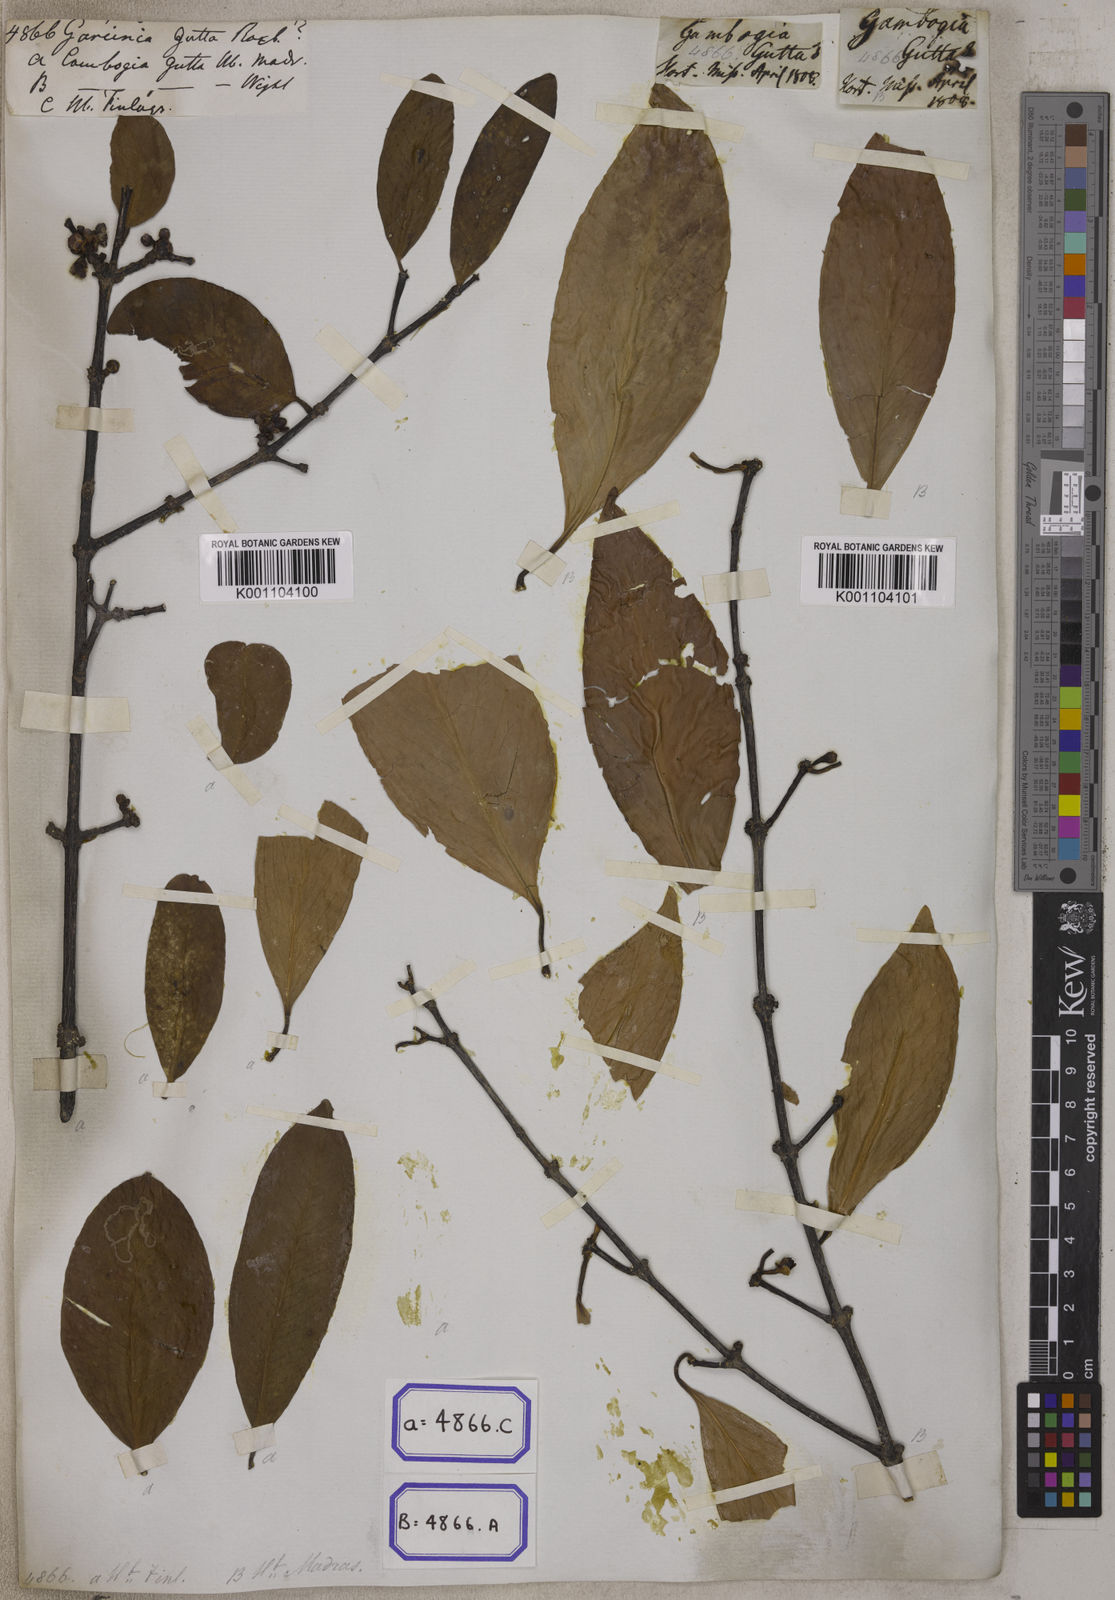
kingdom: Plantae
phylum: Tracheophyta
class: Magnoliopsida
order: Malpighiales
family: Clusiaceae
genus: Garcinia
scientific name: Garcinia
